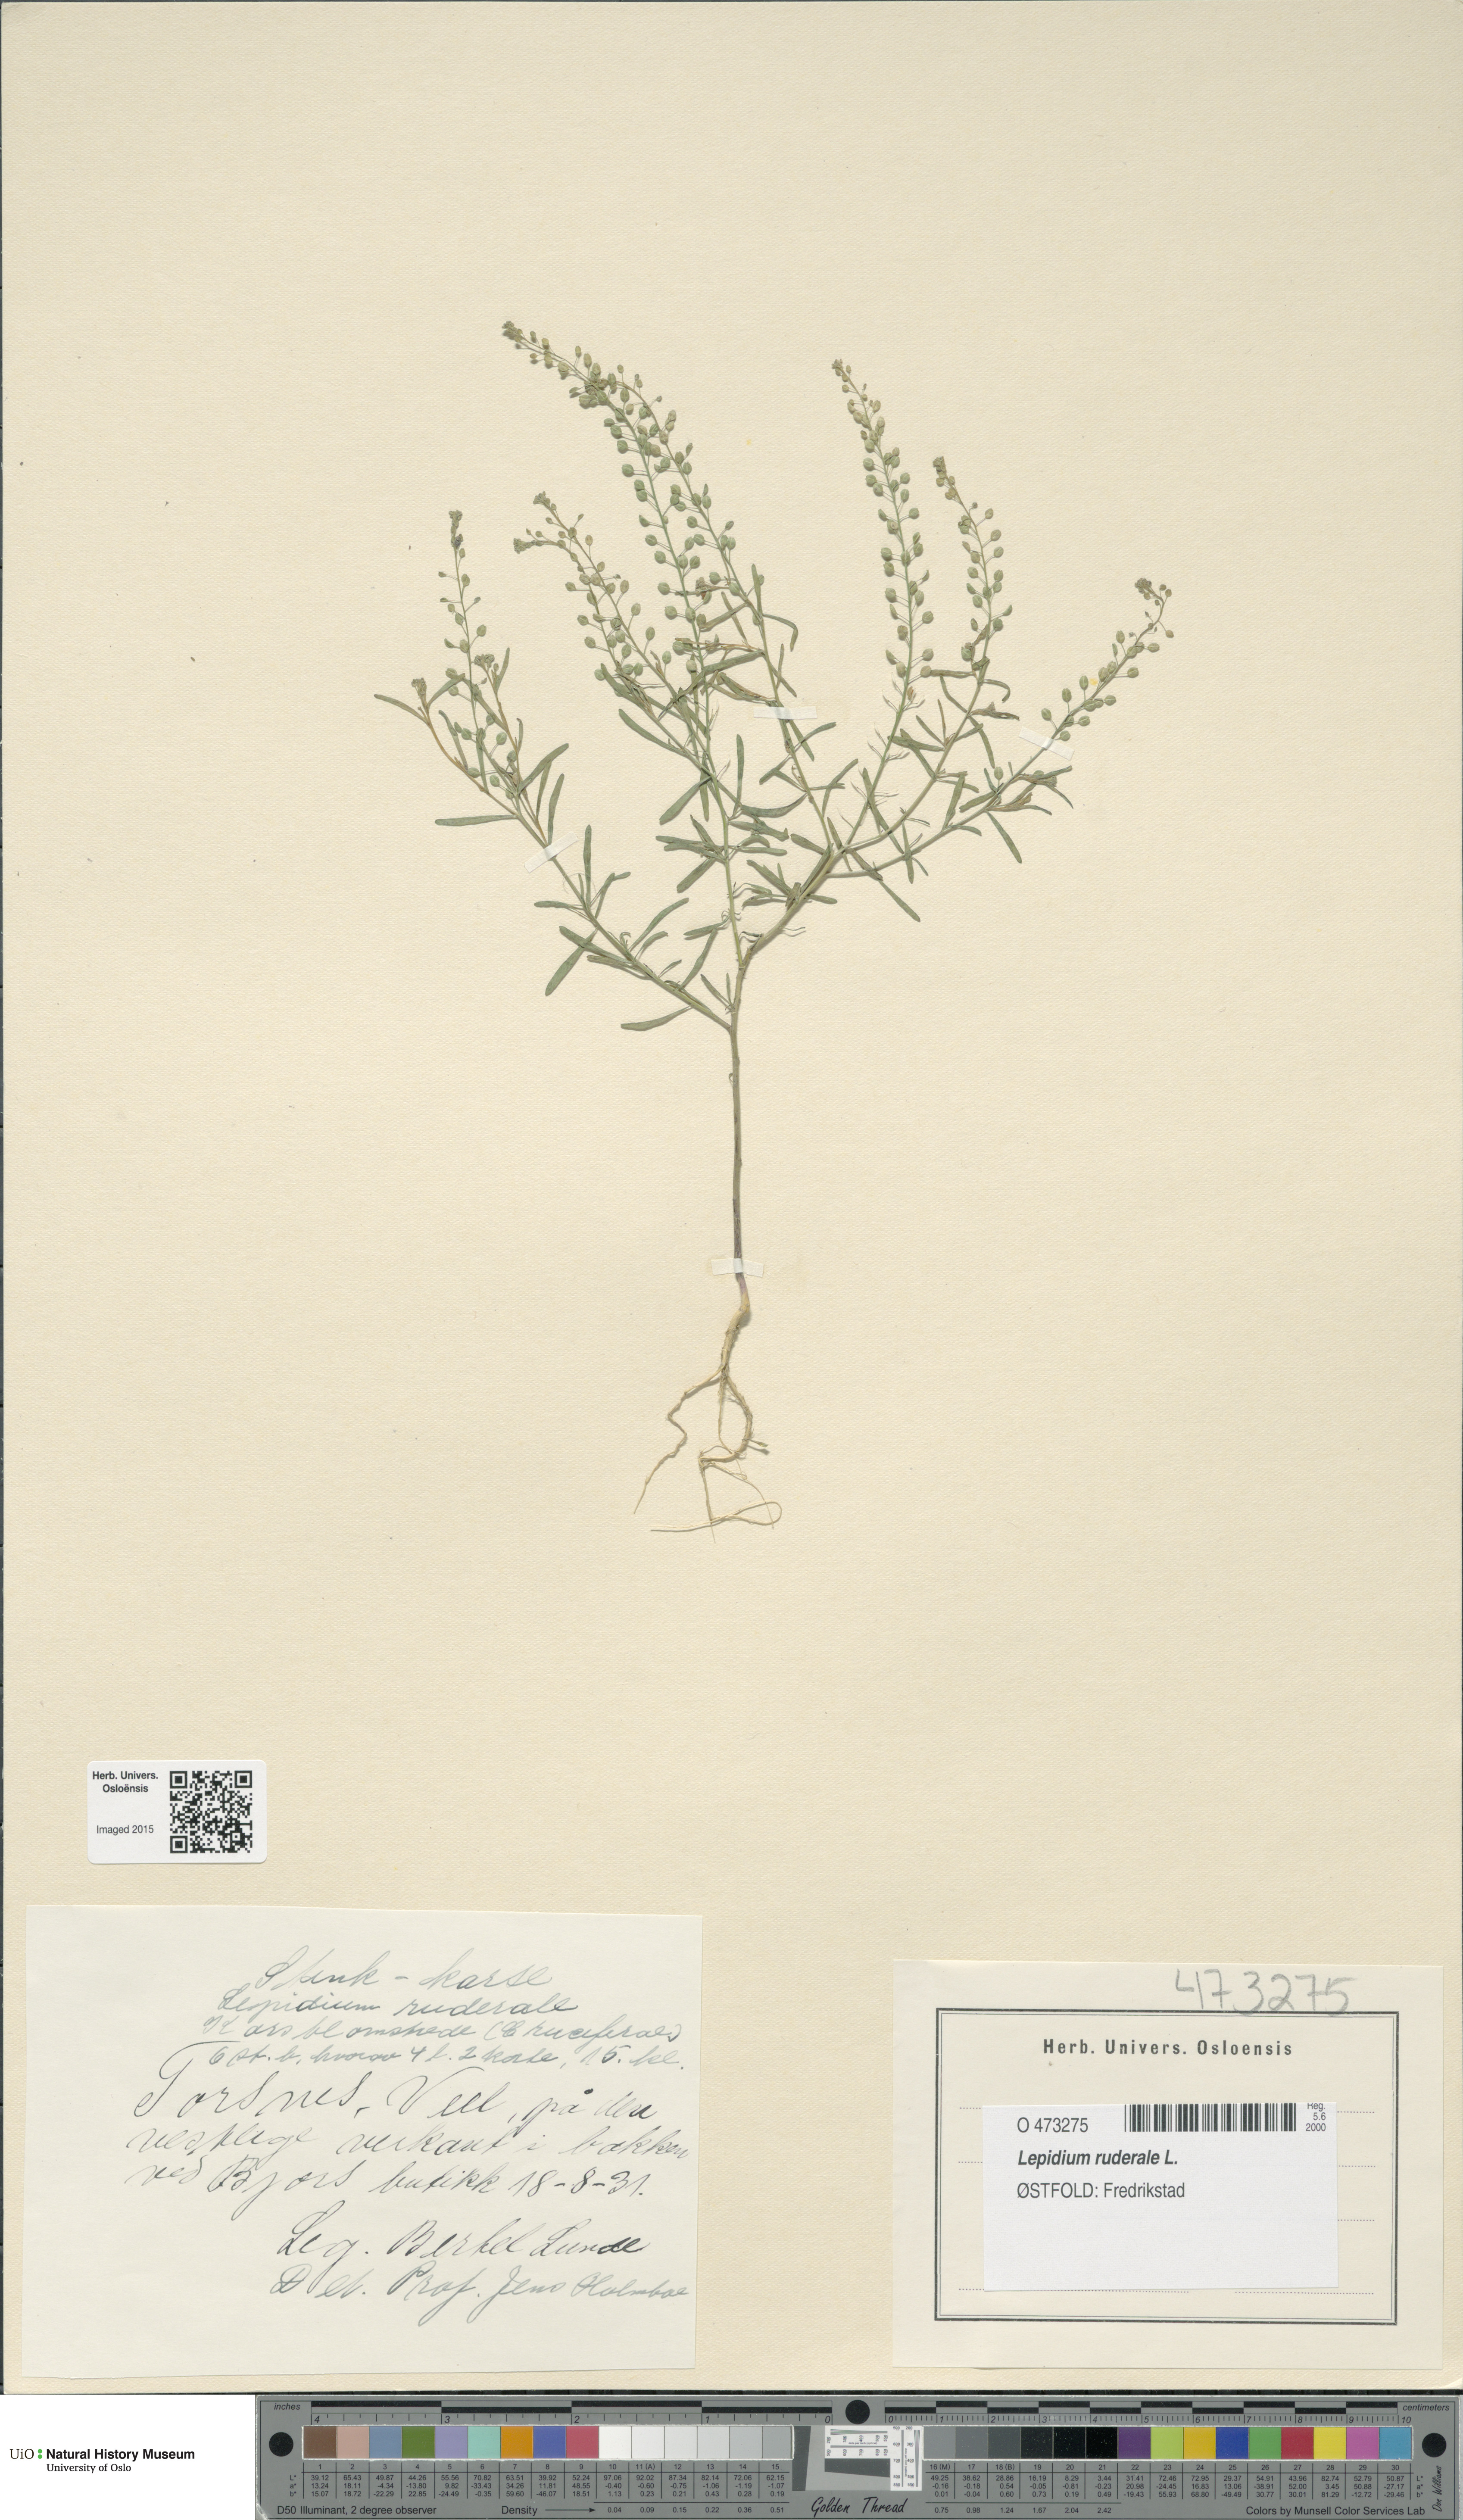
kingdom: Plantae
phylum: Tracheophyta
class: Magnoliopsida
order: Brassicales
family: Brassicaceae
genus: Lepidium
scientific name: Lepidium ruderale
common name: Narrow-leaved pepperwort
